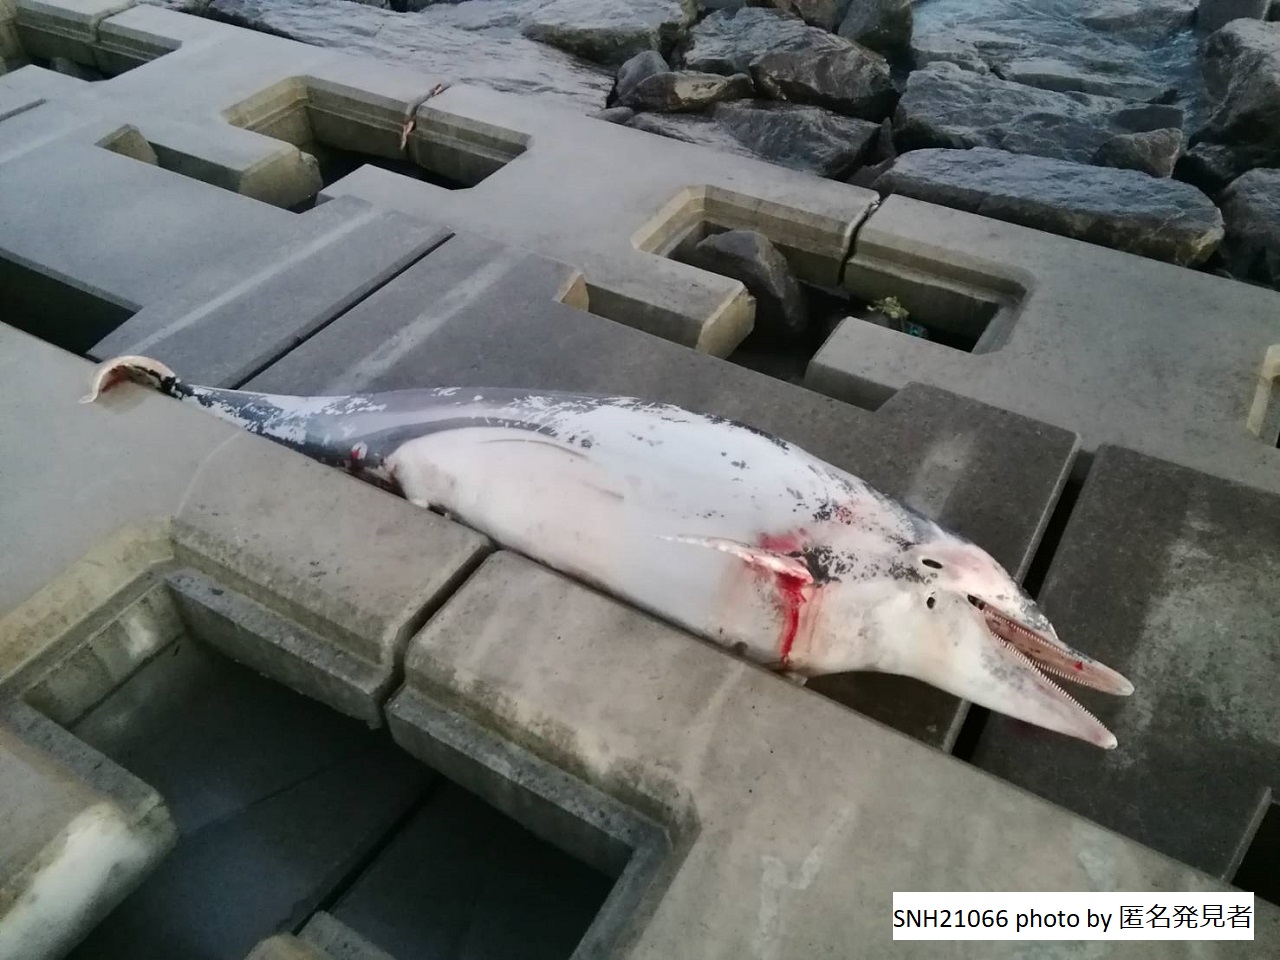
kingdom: Animalia
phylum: Chordata
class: Mammalia
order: Cetacea
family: Delphinidae
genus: Stenella
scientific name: Stenella coeruleoalba
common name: Striped dolphin
